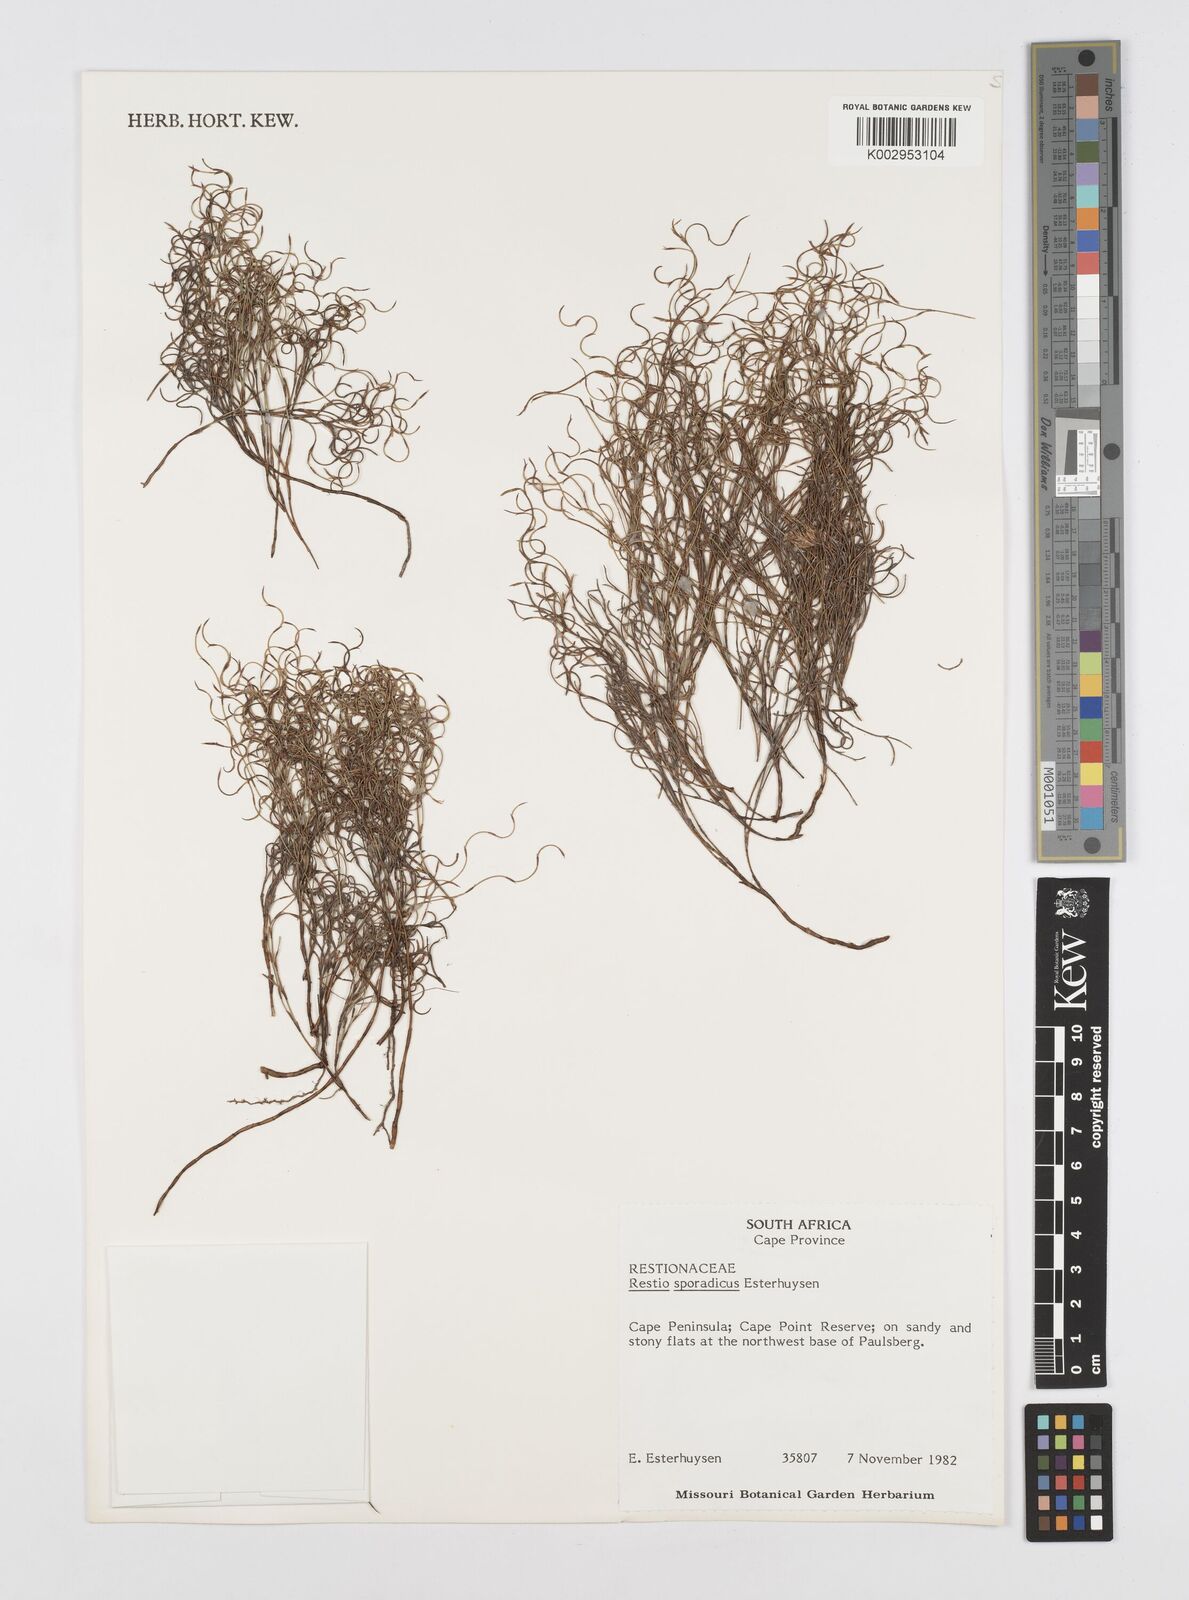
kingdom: Plantae
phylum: Tracheophyta
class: Liliopsida
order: Poales
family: Restionaceae
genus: Restio
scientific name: Restio sporadicus
